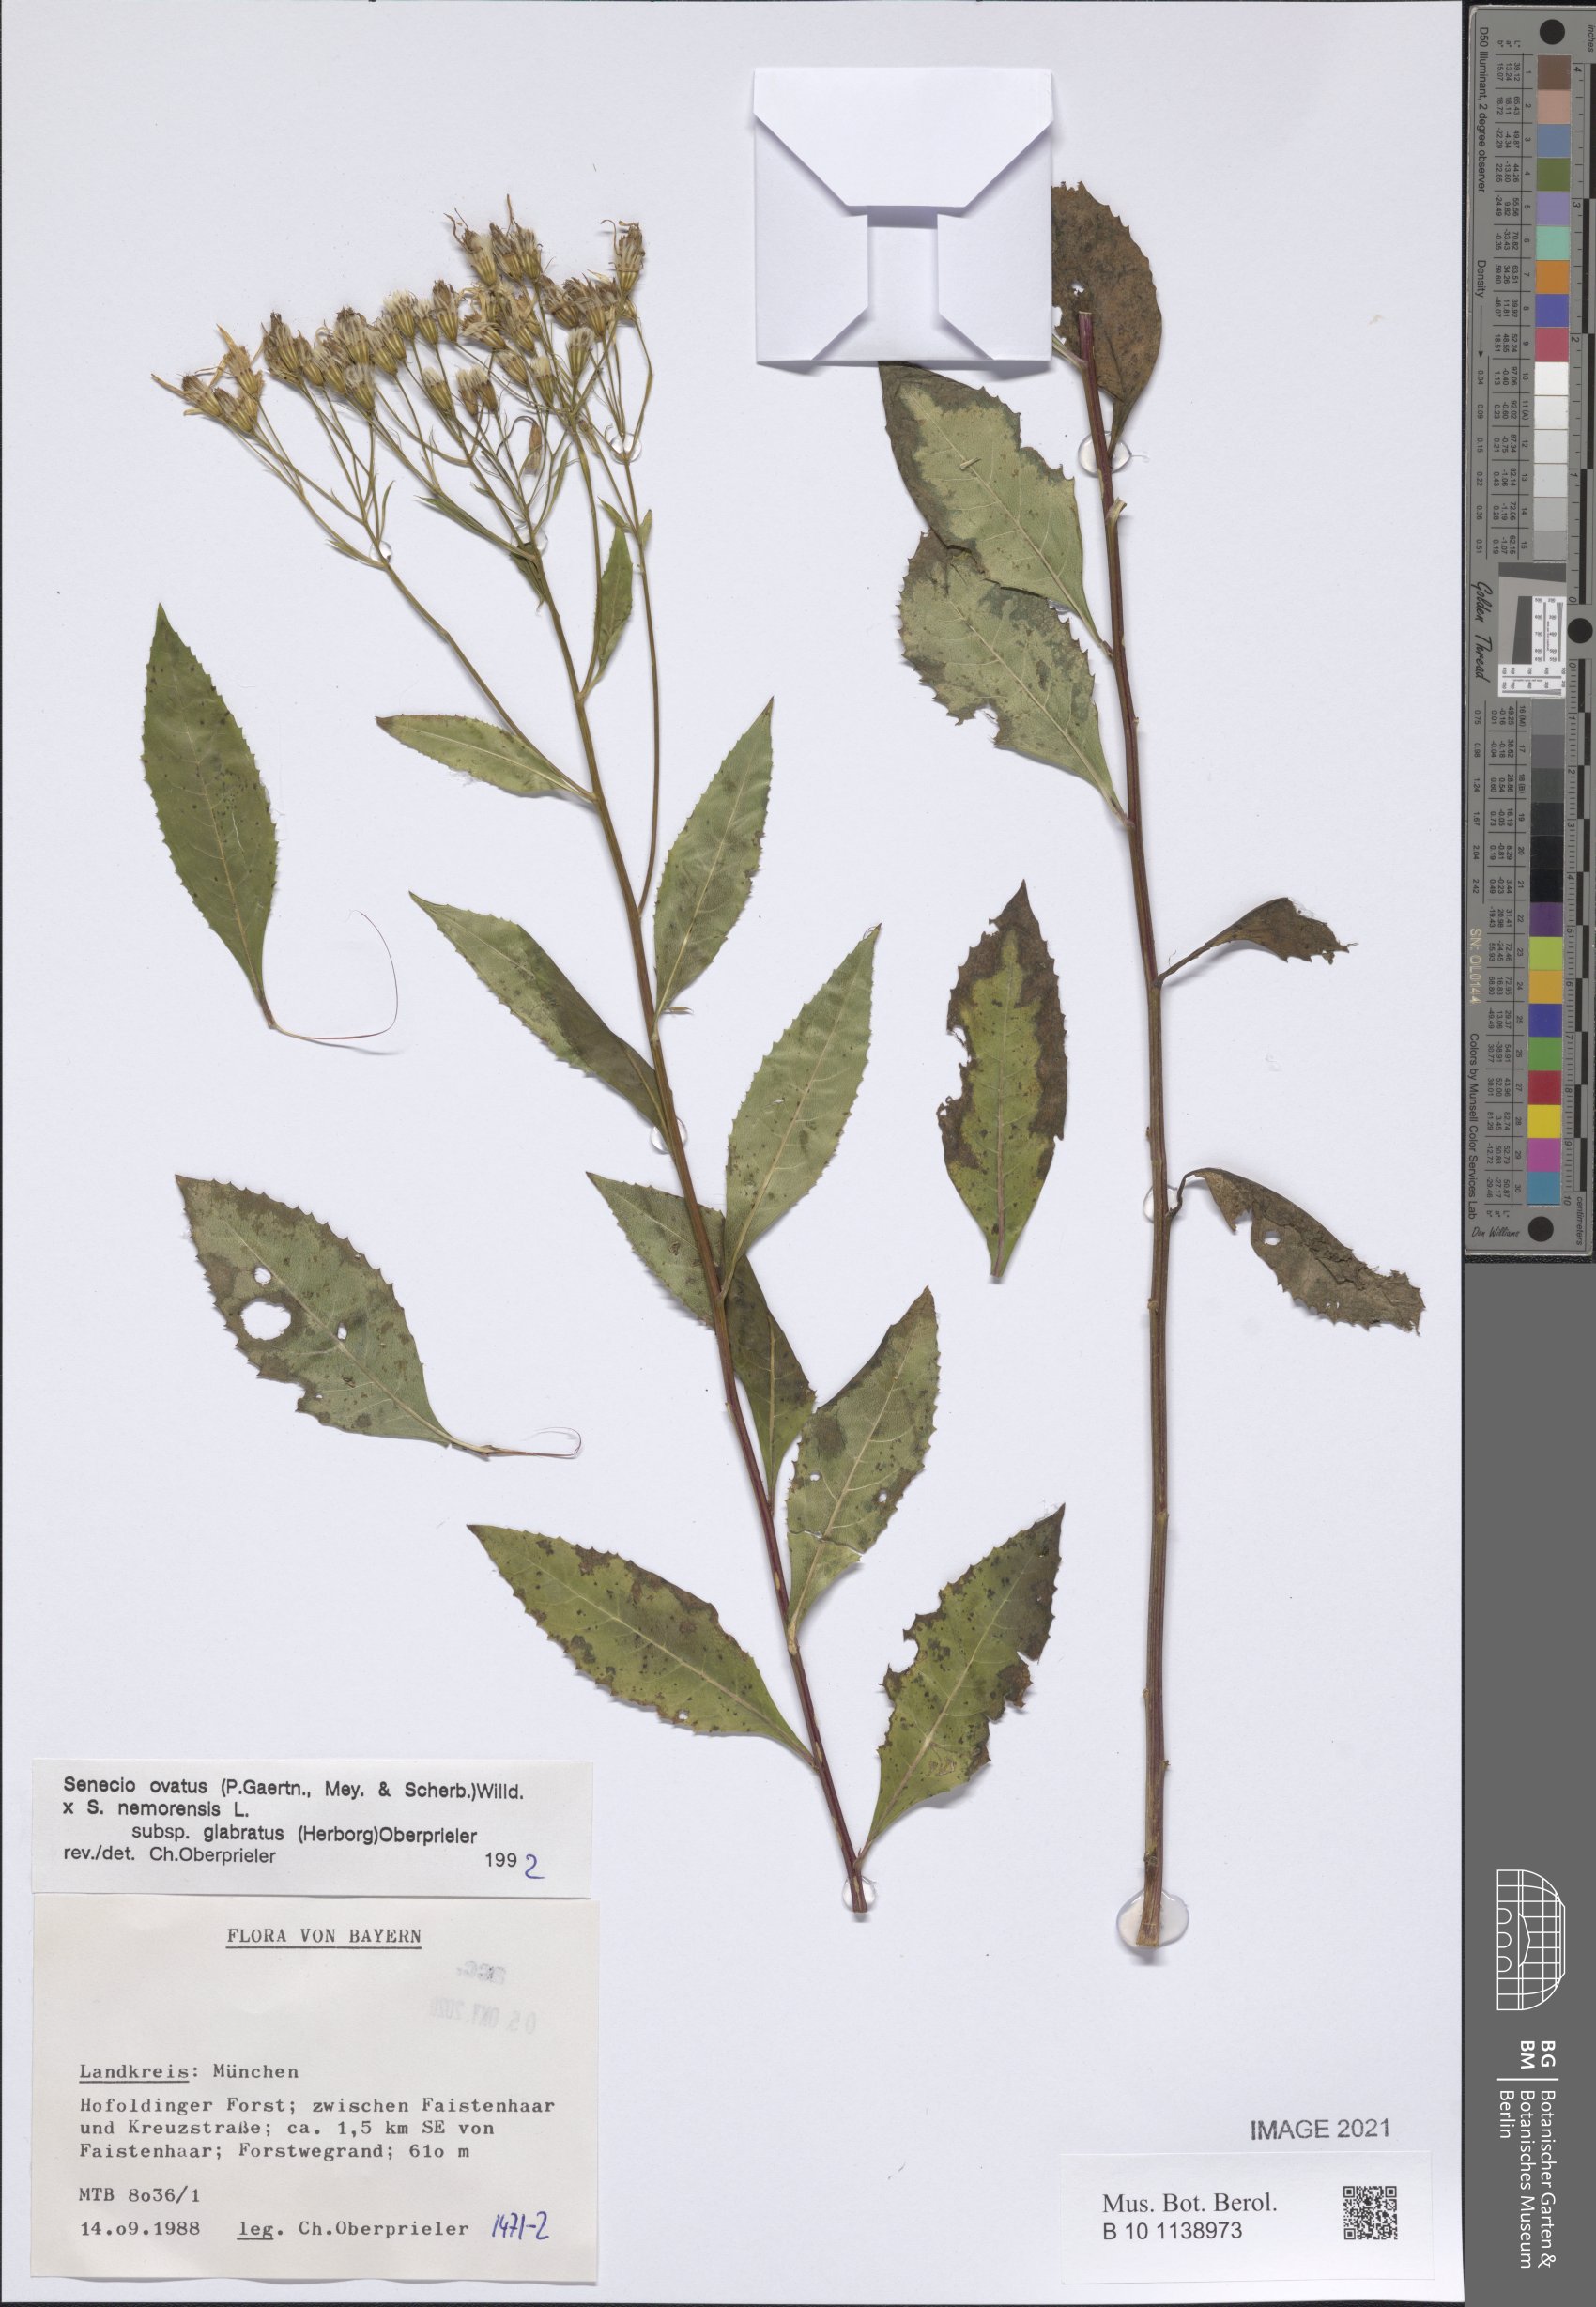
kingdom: Plantae
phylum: Tracheophyta
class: Magnoliopsida
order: Asterales
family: Asteraceae
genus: Senecio
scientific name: Senecio ovatus
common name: Wood ragwort
